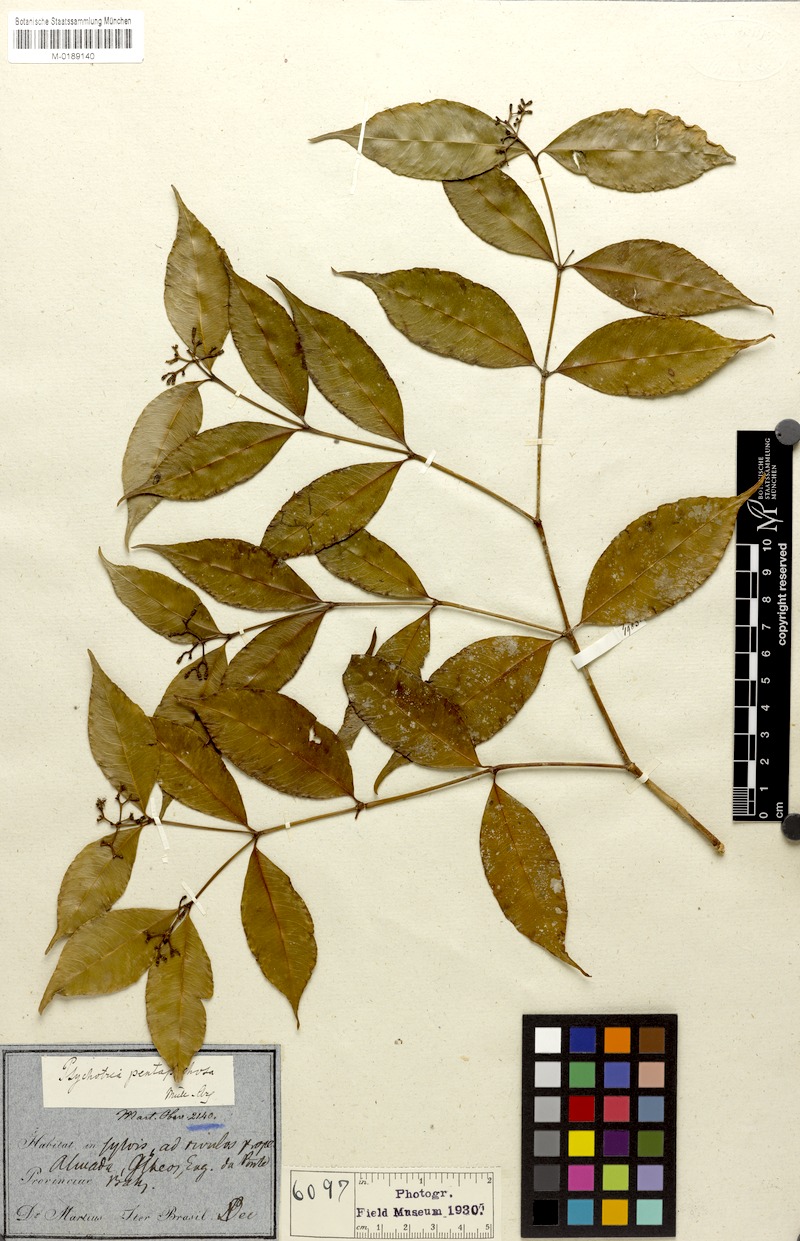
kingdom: Plantae
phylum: Tracheophyta
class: Magnoliopsida
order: Gentianales
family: Rubiaceae
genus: Psychotria
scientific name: Psychotria pentaphtosa
